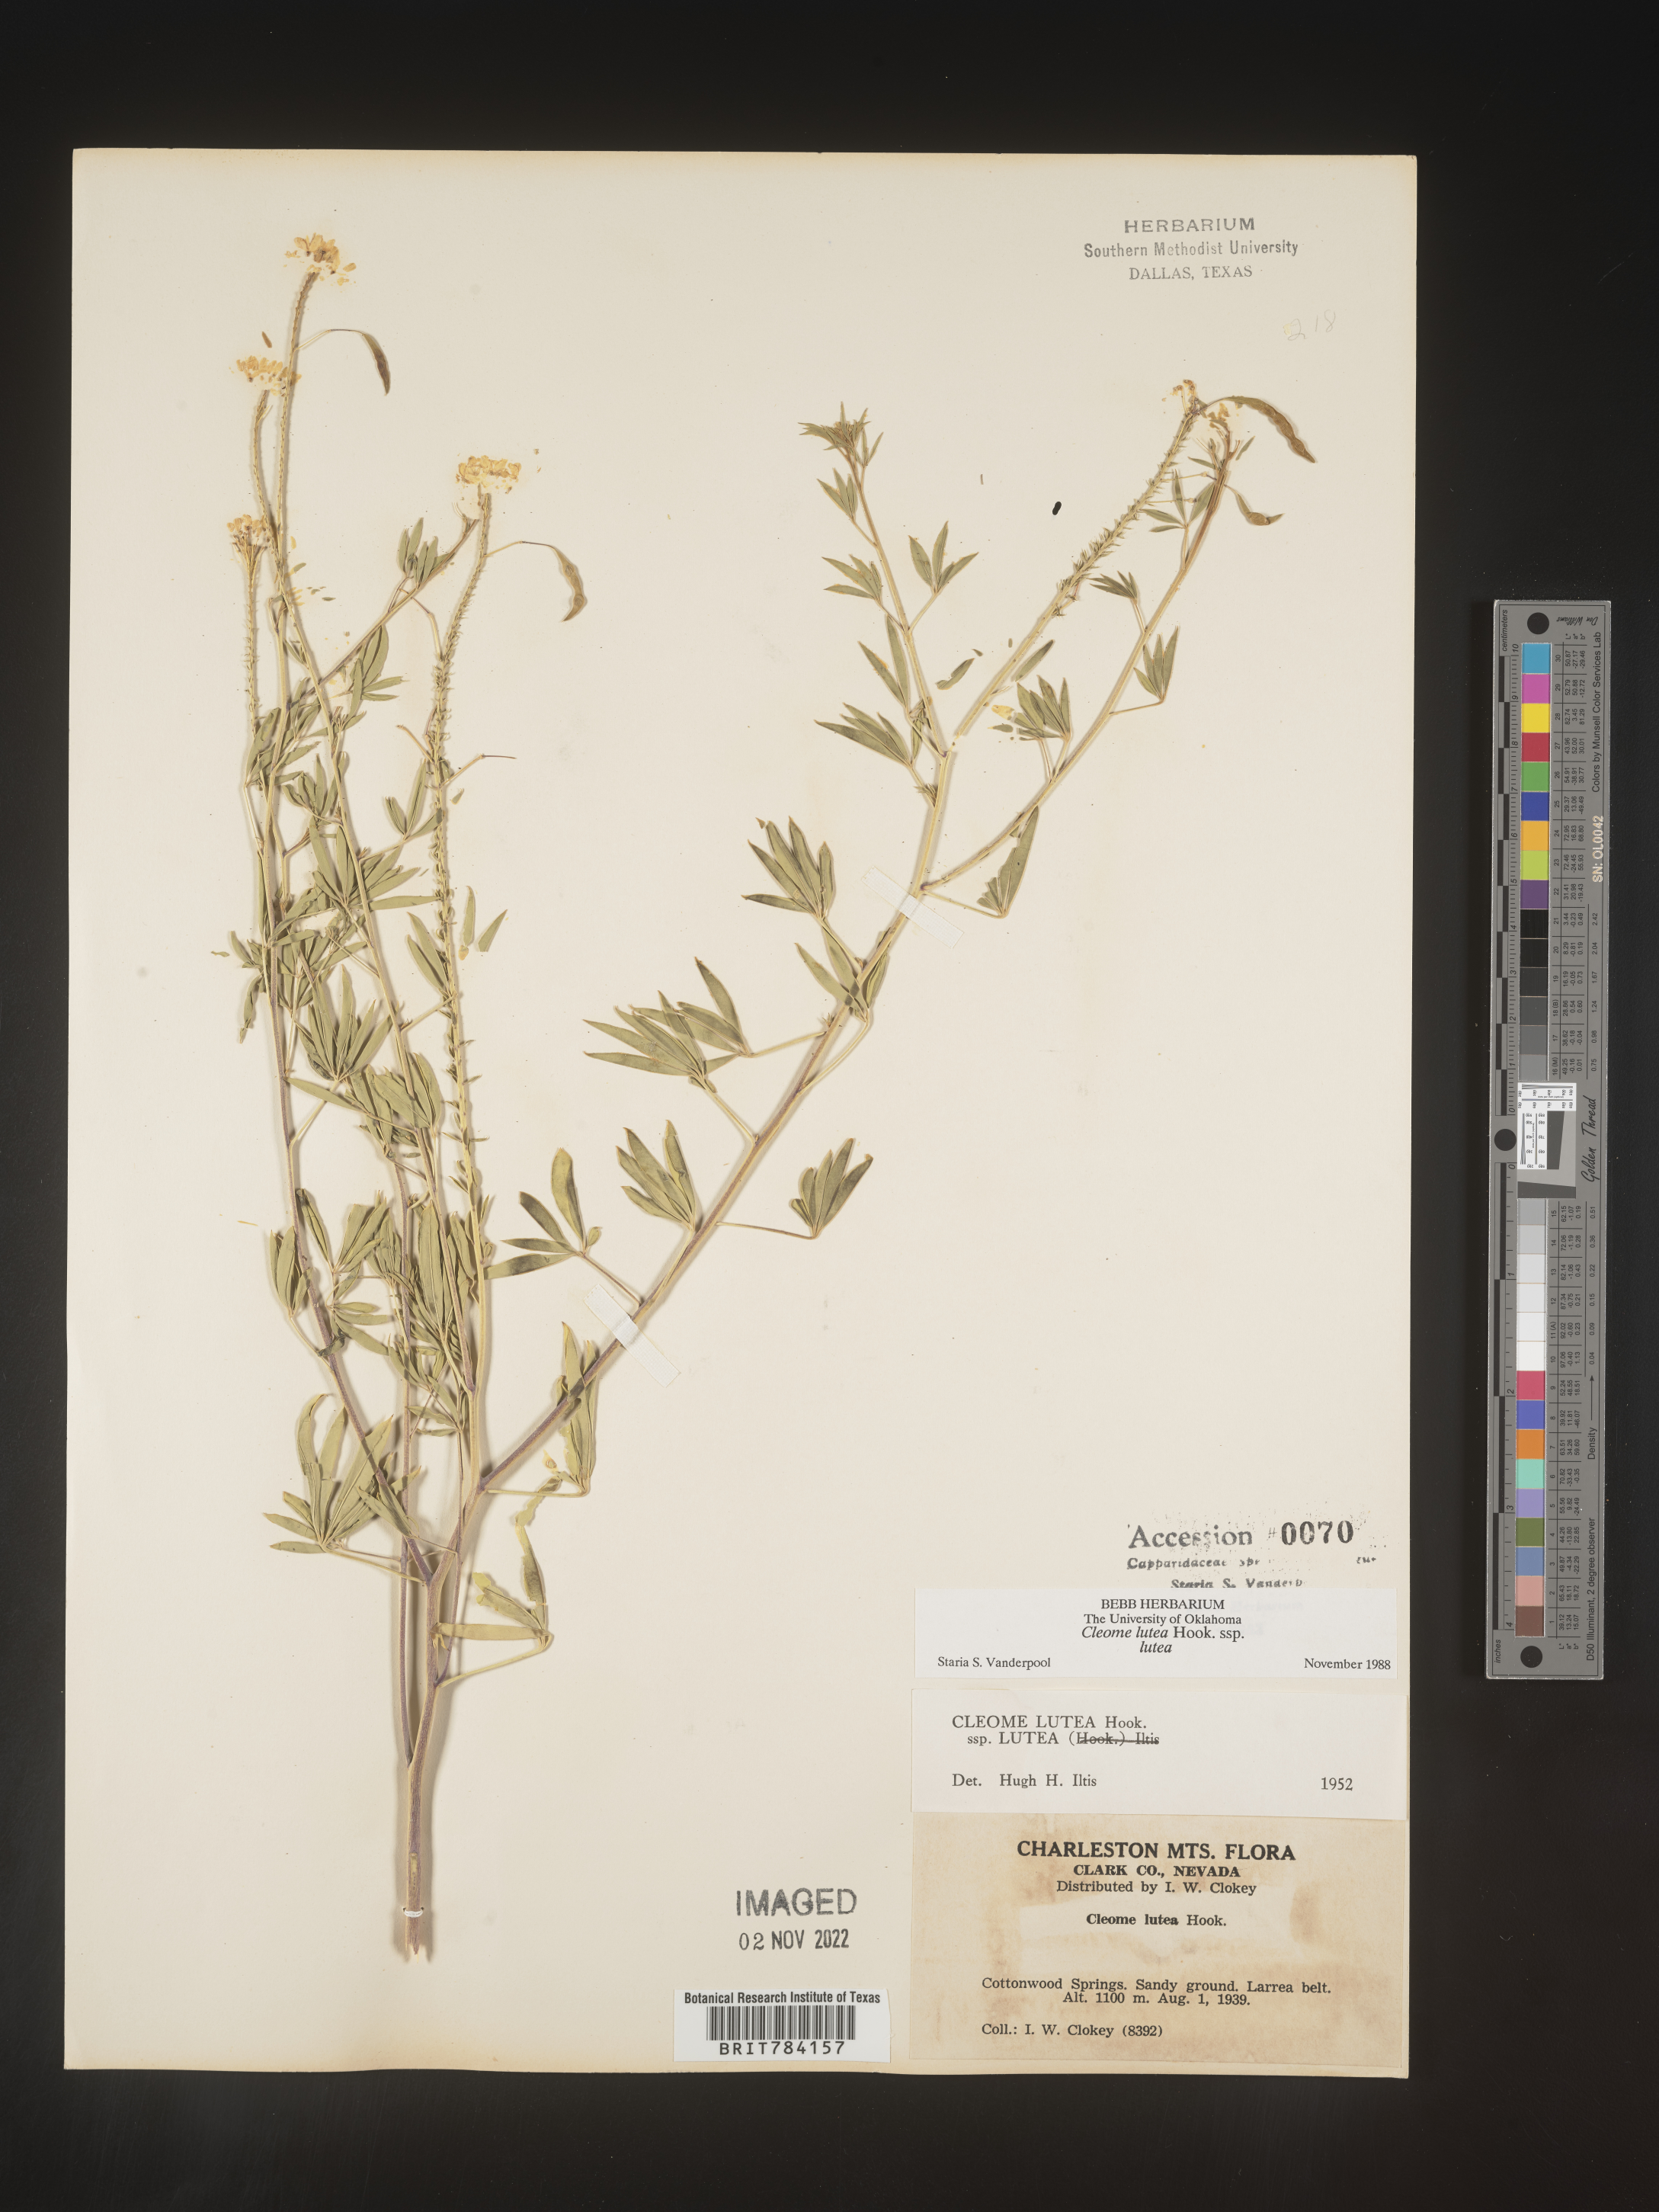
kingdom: Plantae
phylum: Tracheophyta
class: Magnoliopsida
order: Brassicales
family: Cleomaceae
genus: Cleomella
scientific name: Cleomella lutea
